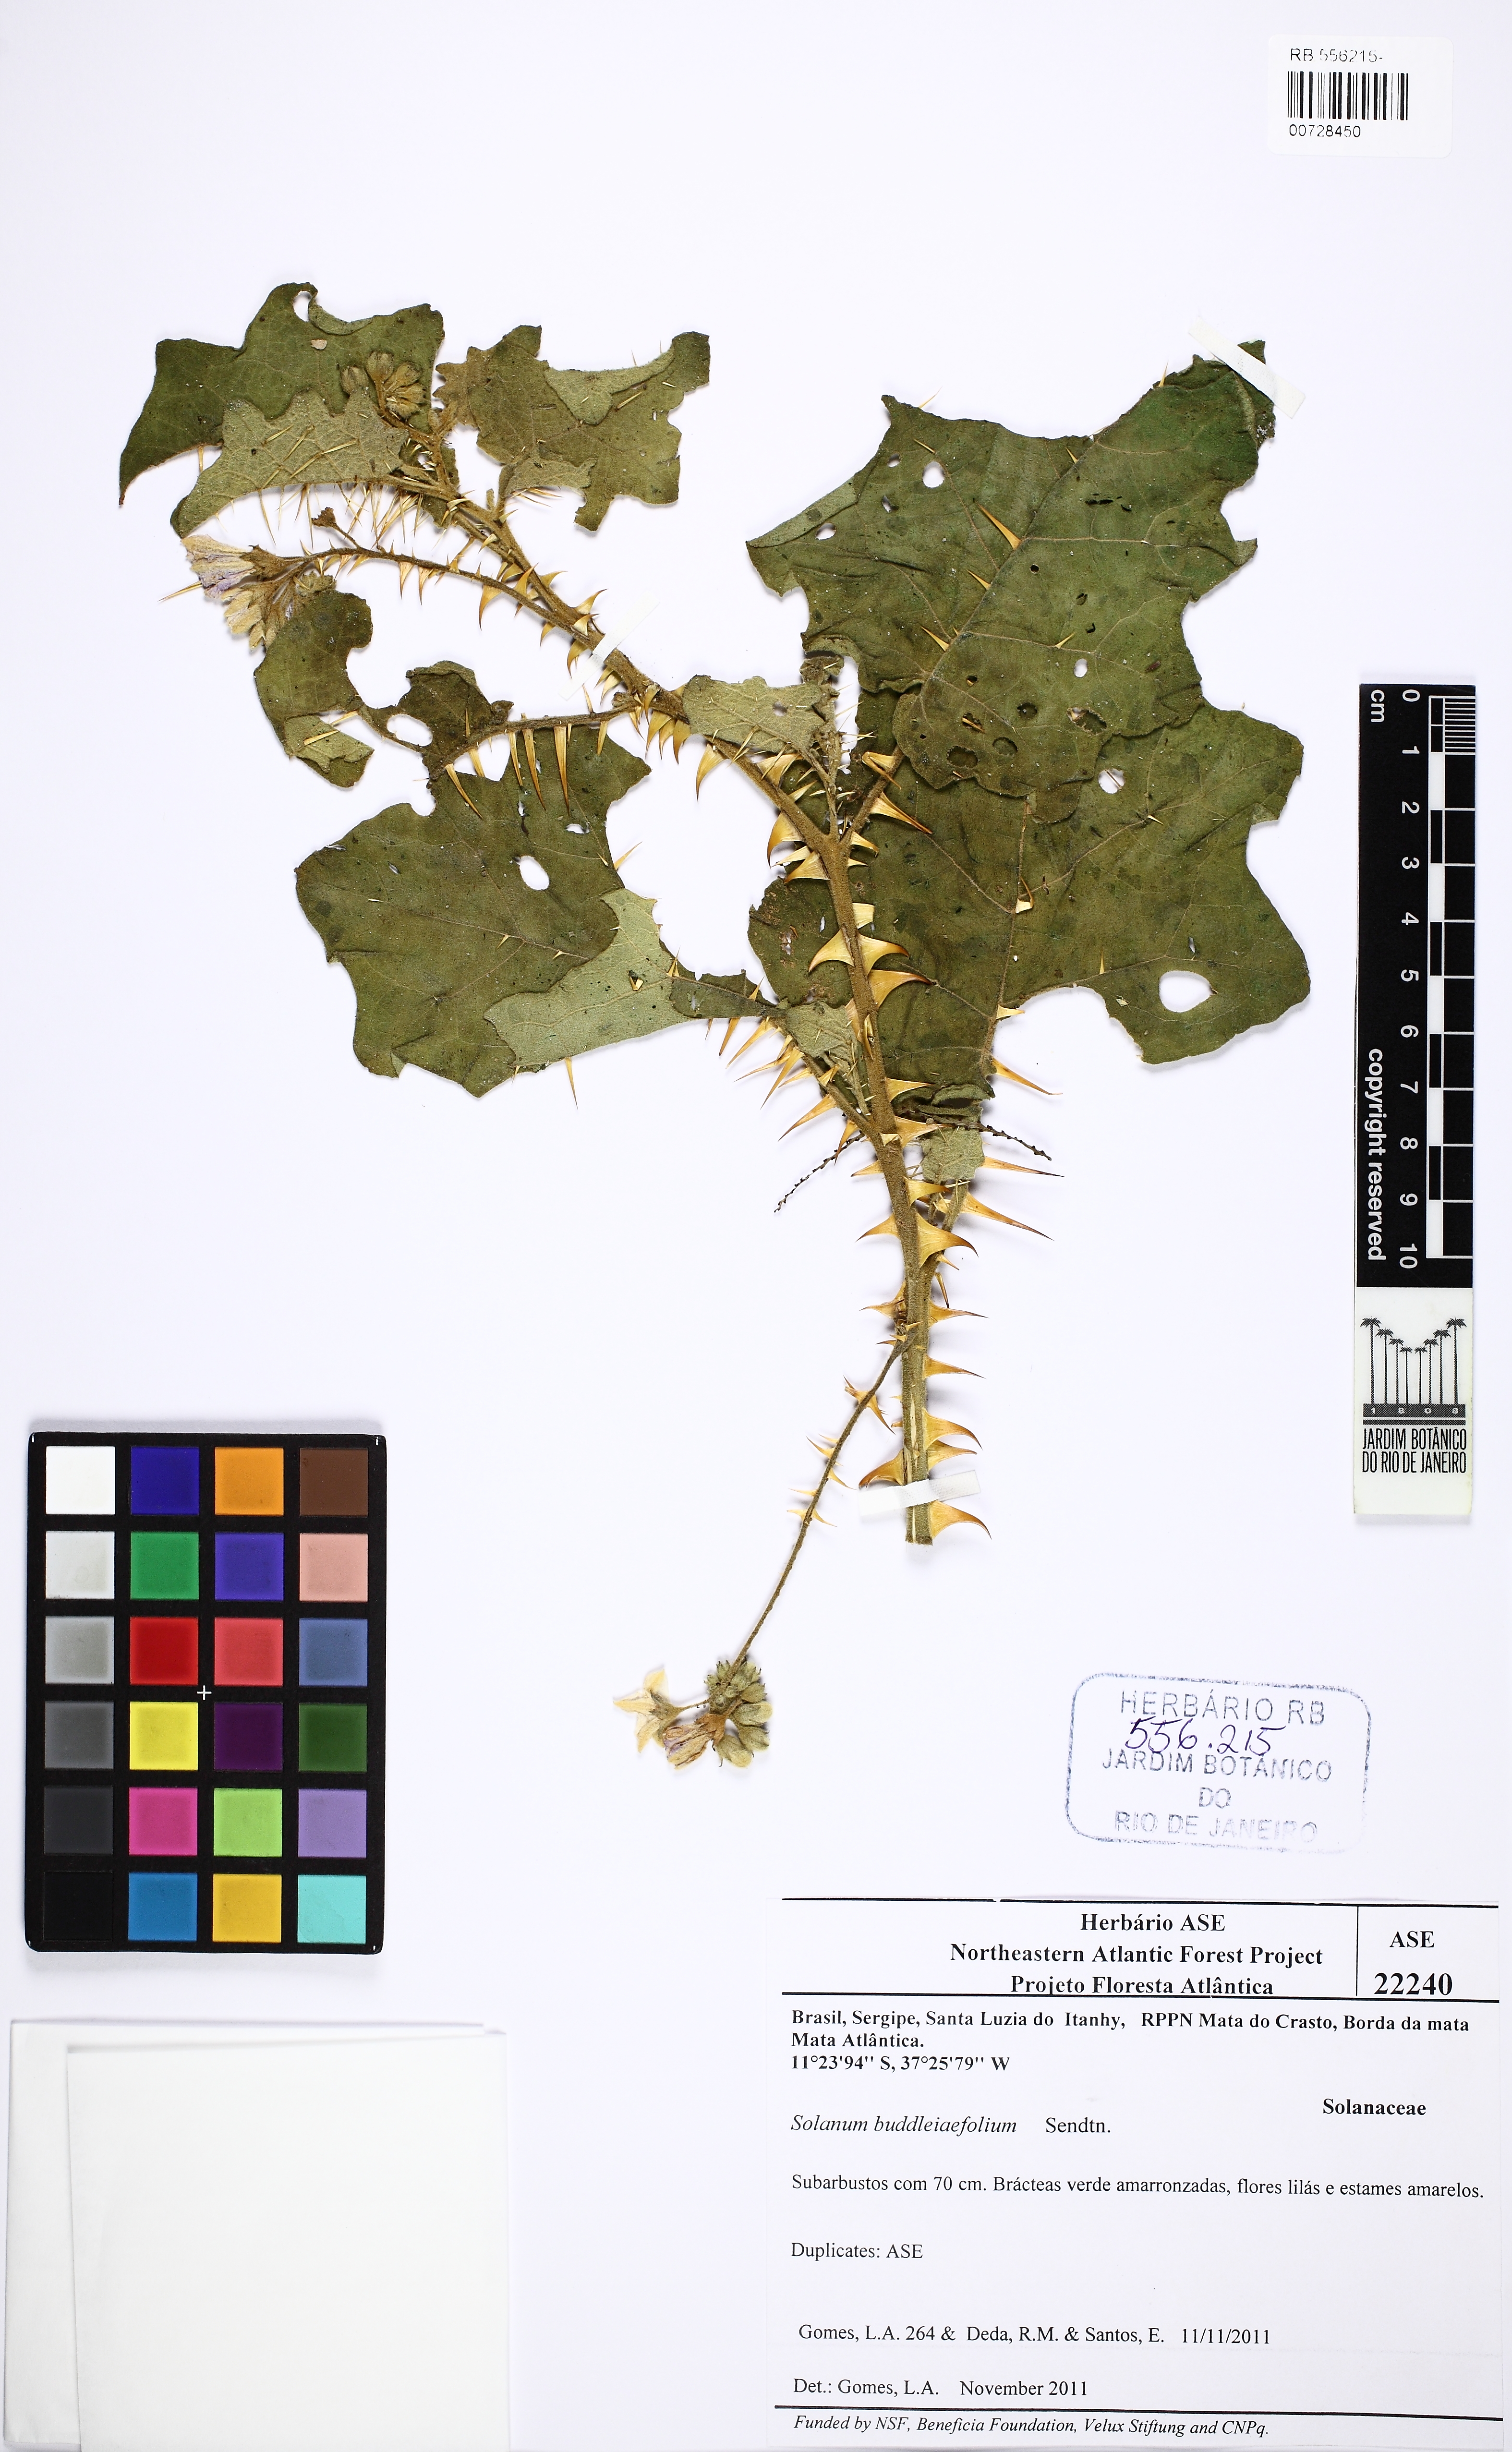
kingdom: Plantae
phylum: Tracheophyta
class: Magnoliopsida
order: Solanales
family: Solanaceae
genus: Solanum
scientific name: Solanum thomasiifolium
